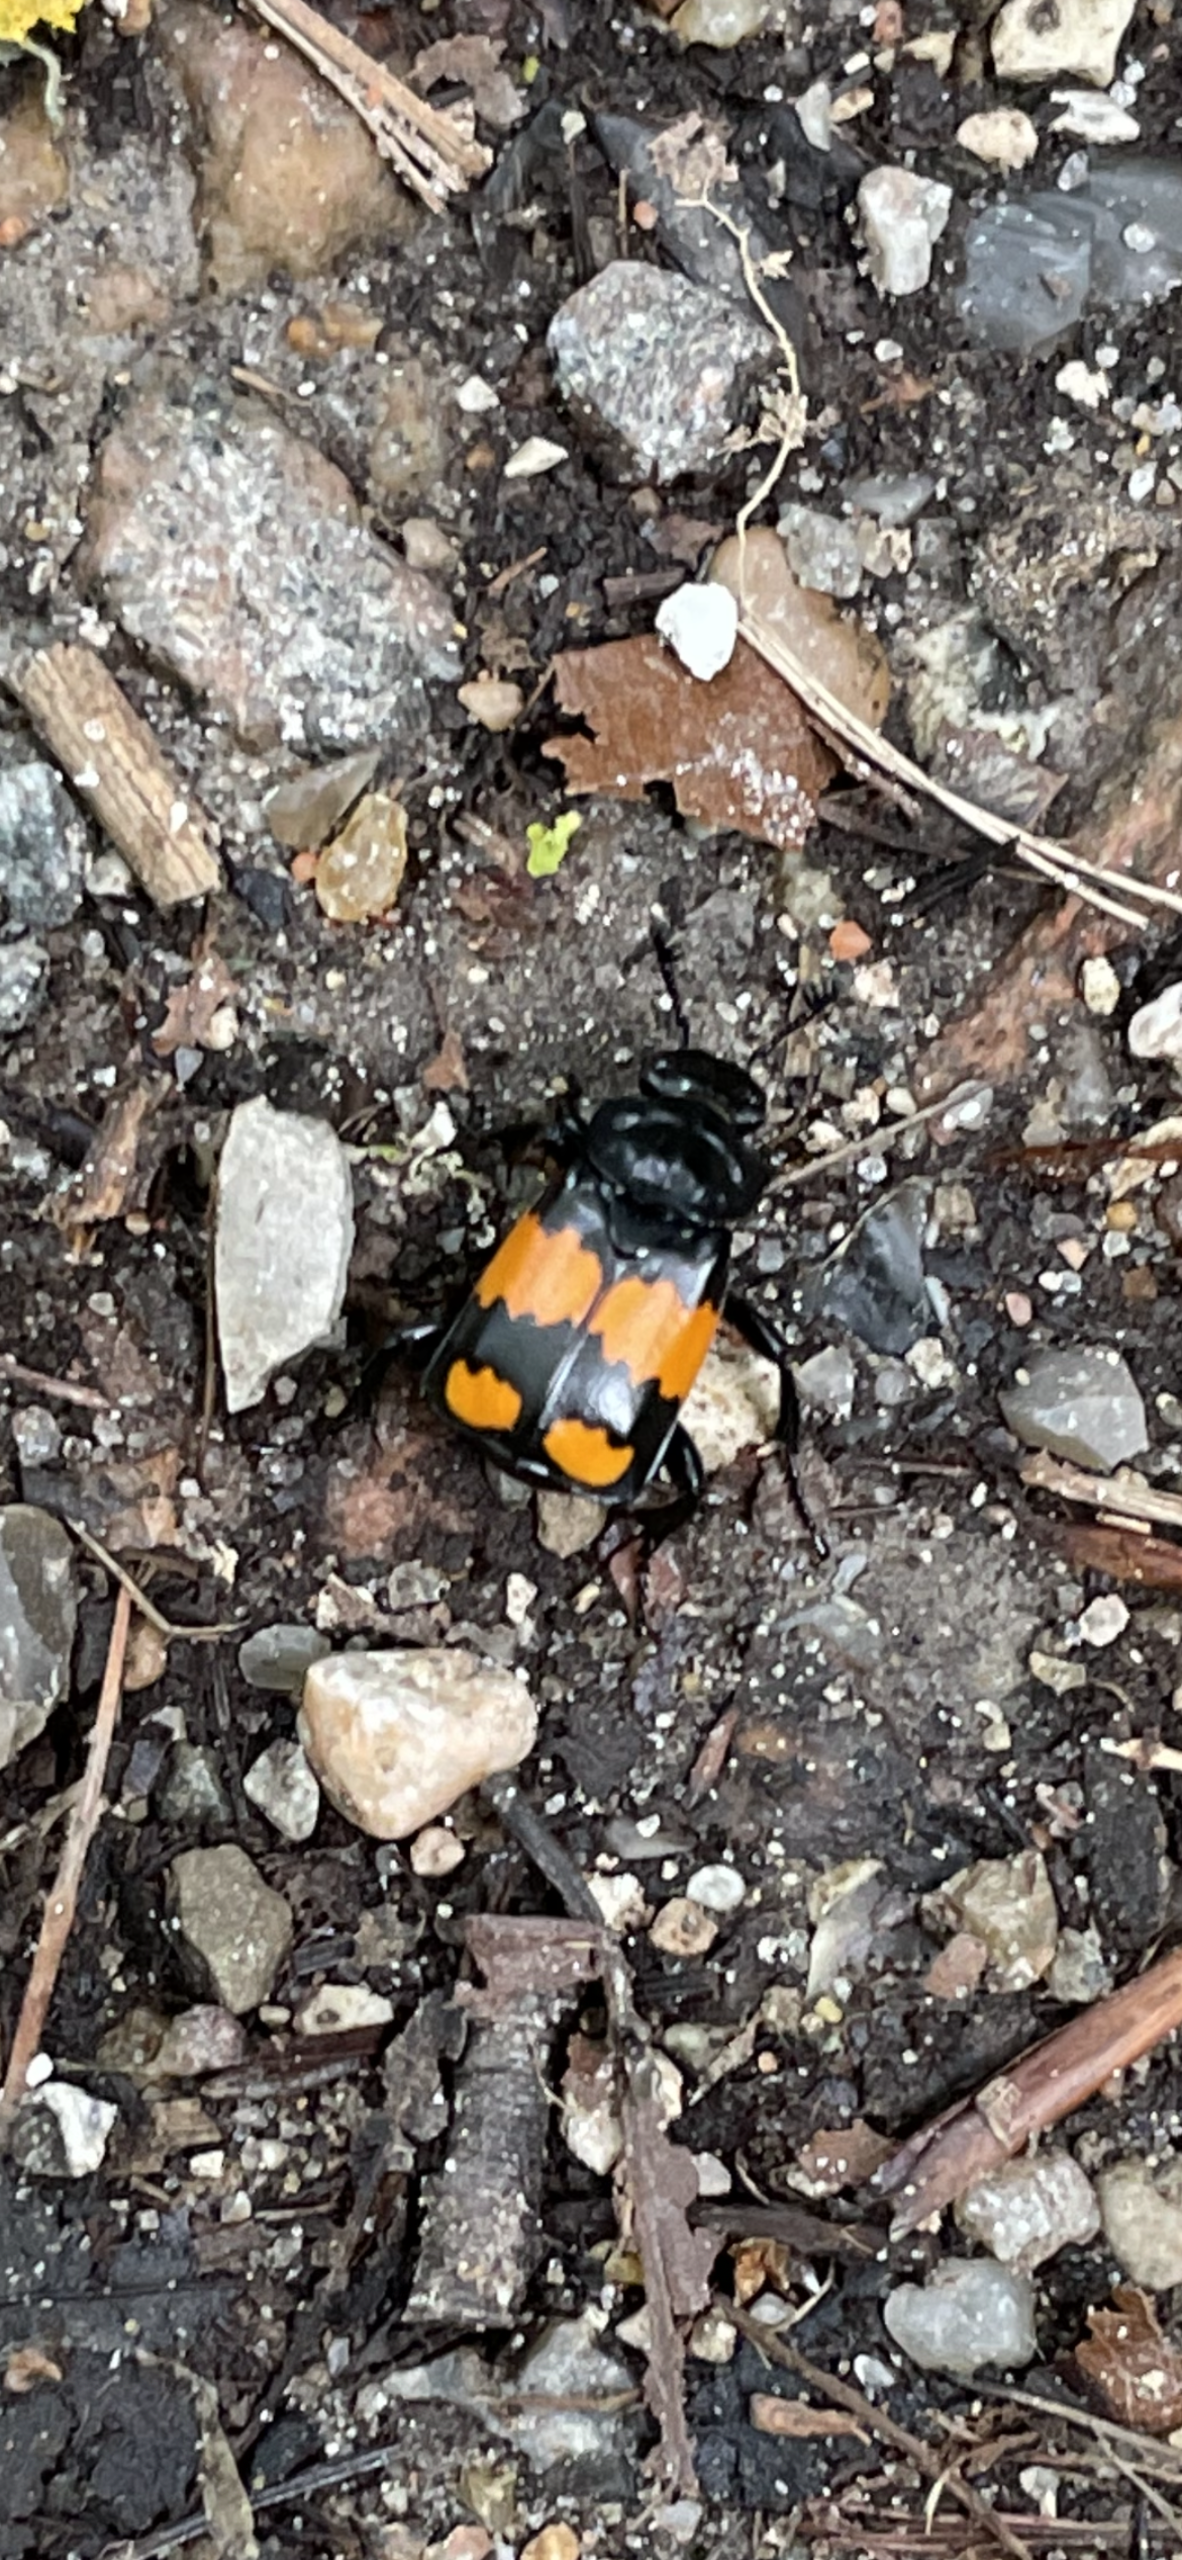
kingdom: Animalia
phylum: Arthropoda
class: Insecta
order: Coleoptera
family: Staphylinidae
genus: Nicrophorus
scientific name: Nicrophorus vespilloides
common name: Sortkøllet ådselgraver
